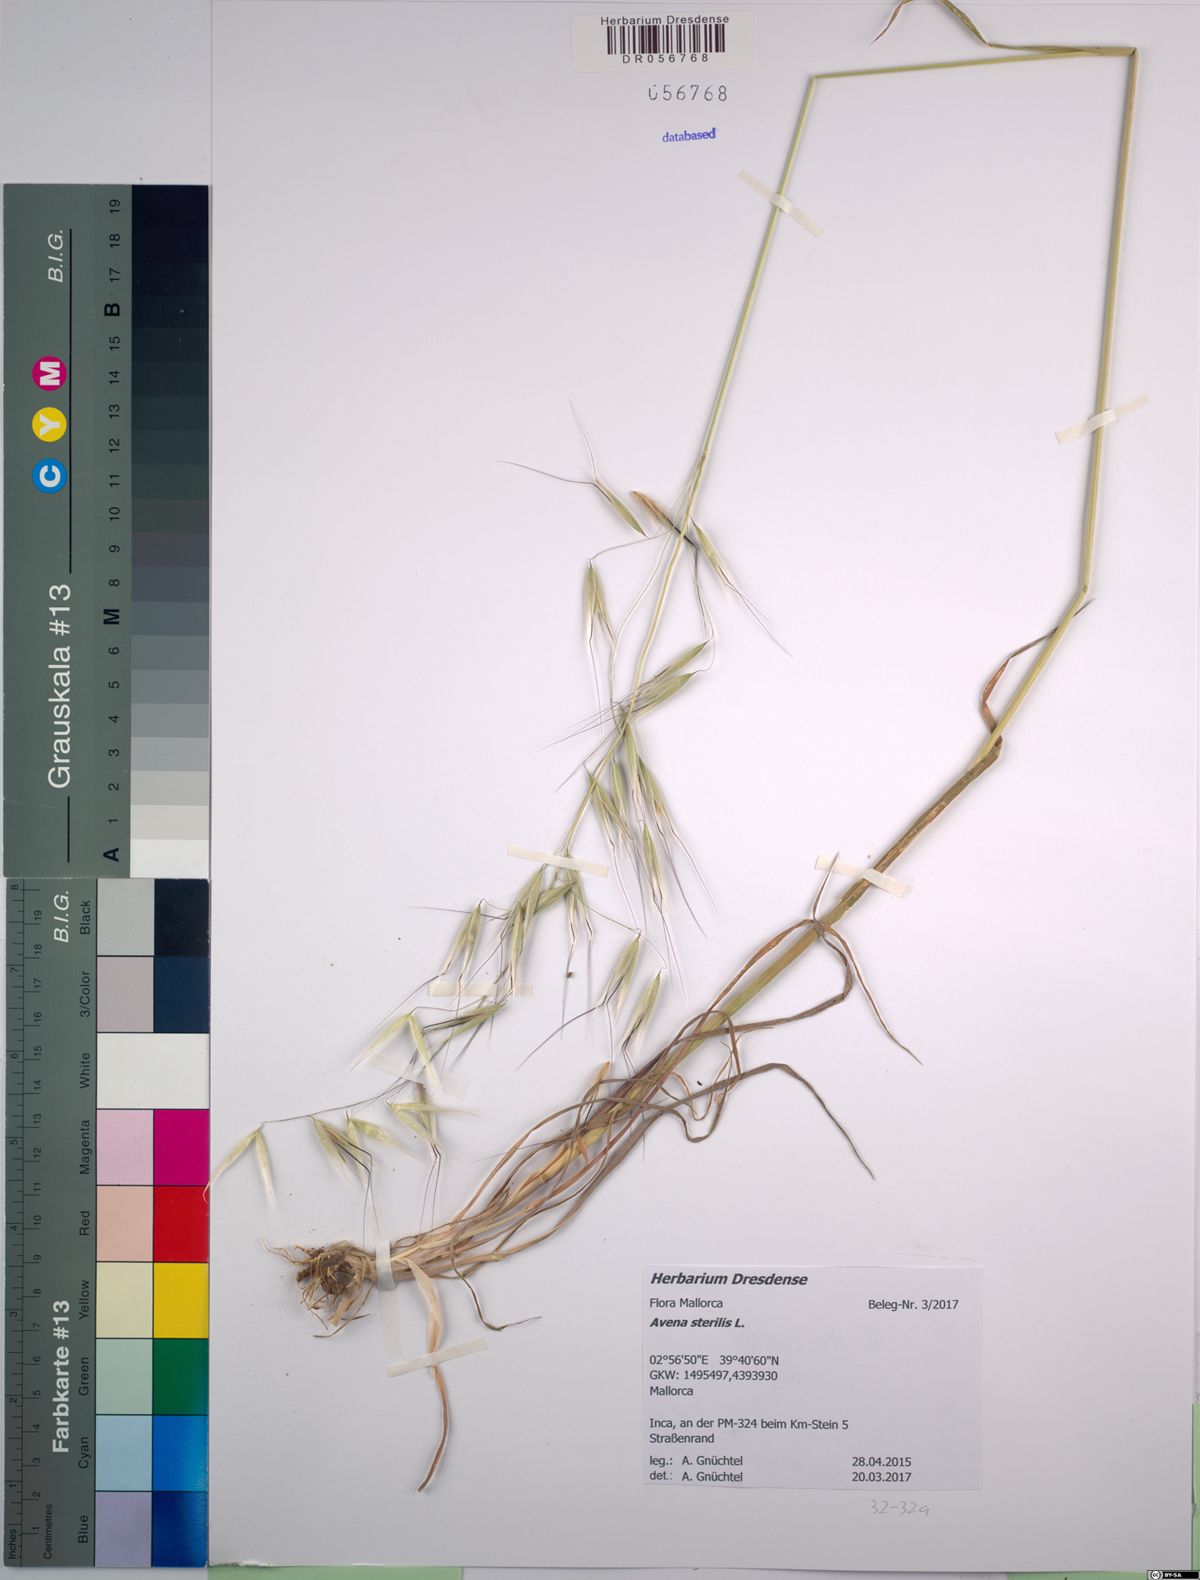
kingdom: Plantae
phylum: Tracheophyta
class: Liliopsida
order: Poales
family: Poaceae
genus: Avena
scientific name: Avena sterilis
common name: Animated oat
